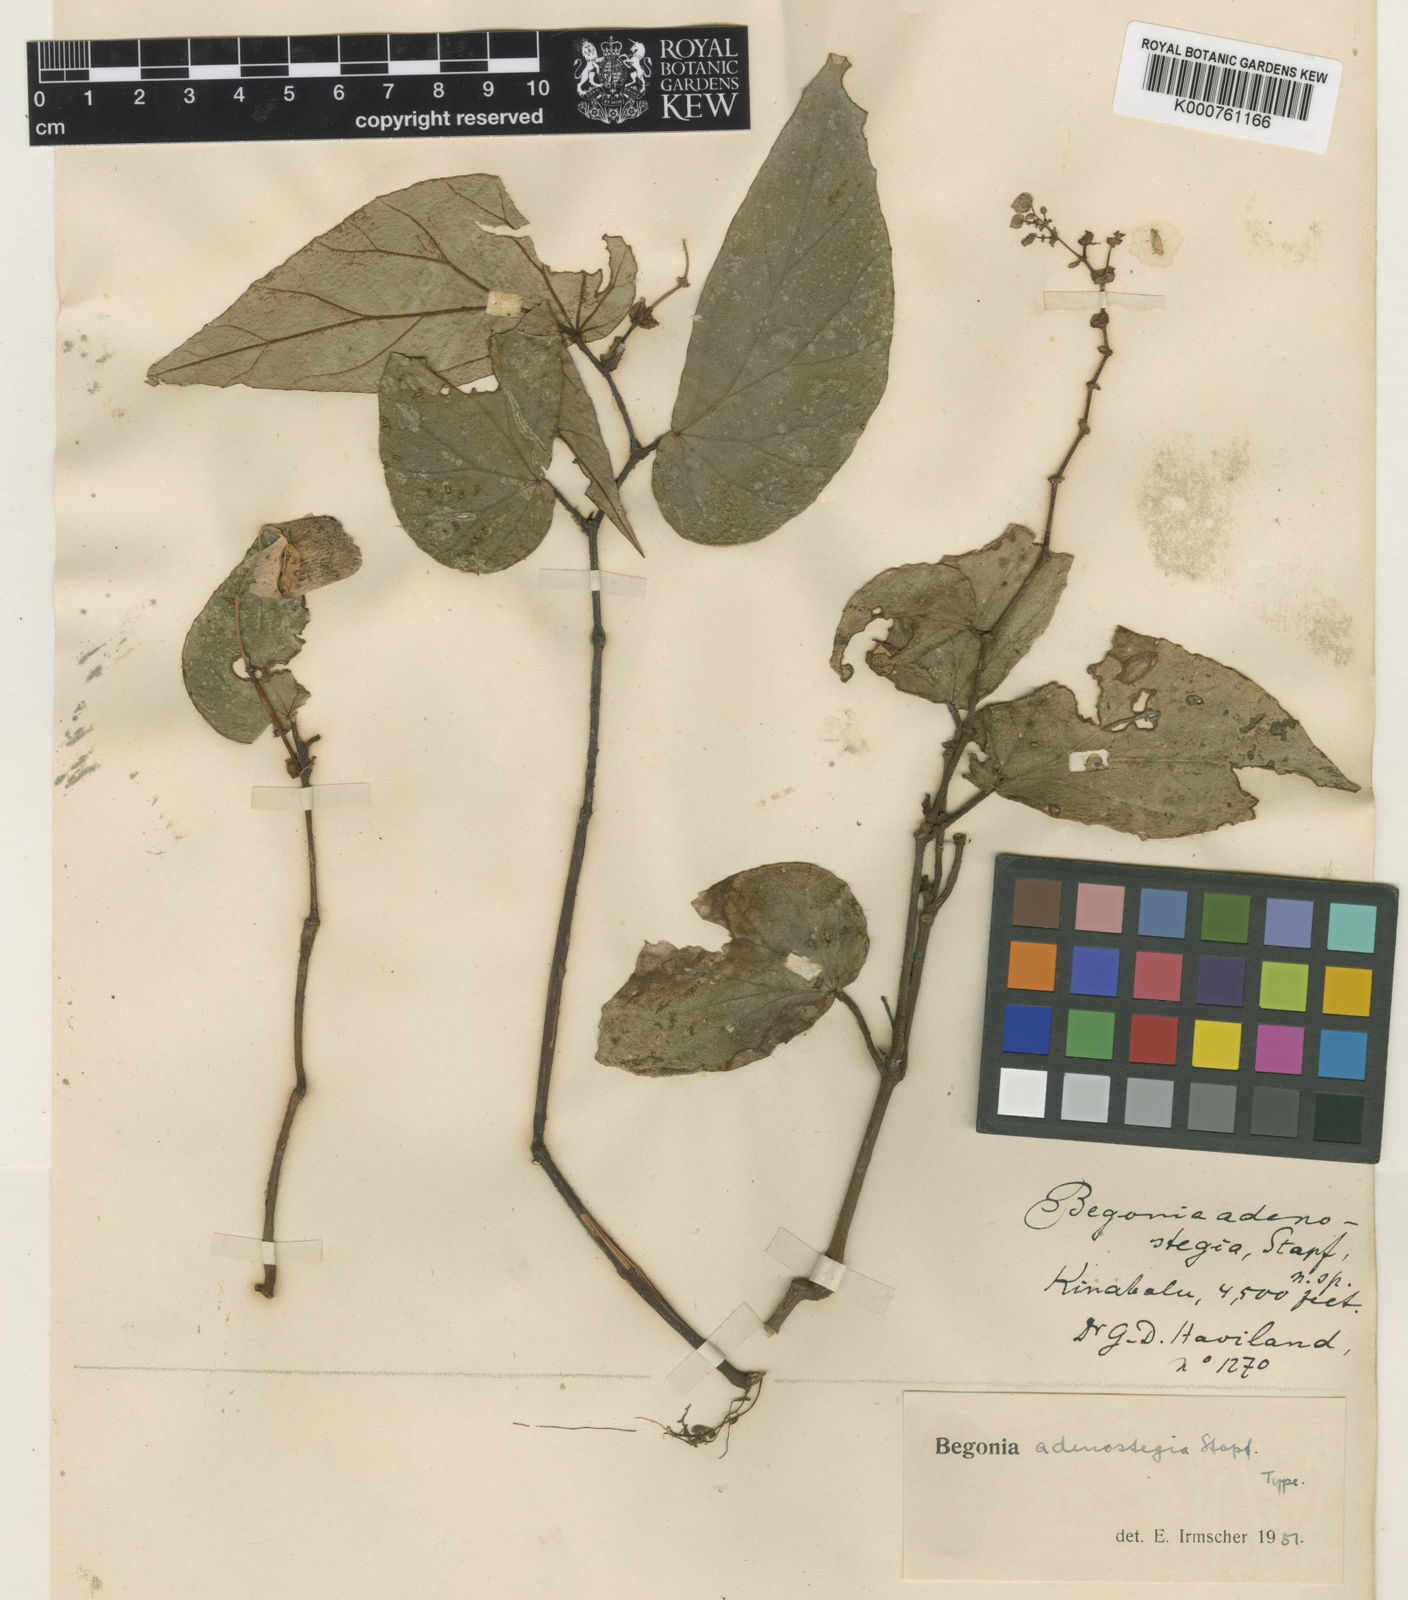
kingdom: Plantae
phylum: Tracheophyta
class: Magnoliopsida
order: Cucurbitales
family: Begoniaceae
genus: Begonia
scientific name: Begonia adenostegia
